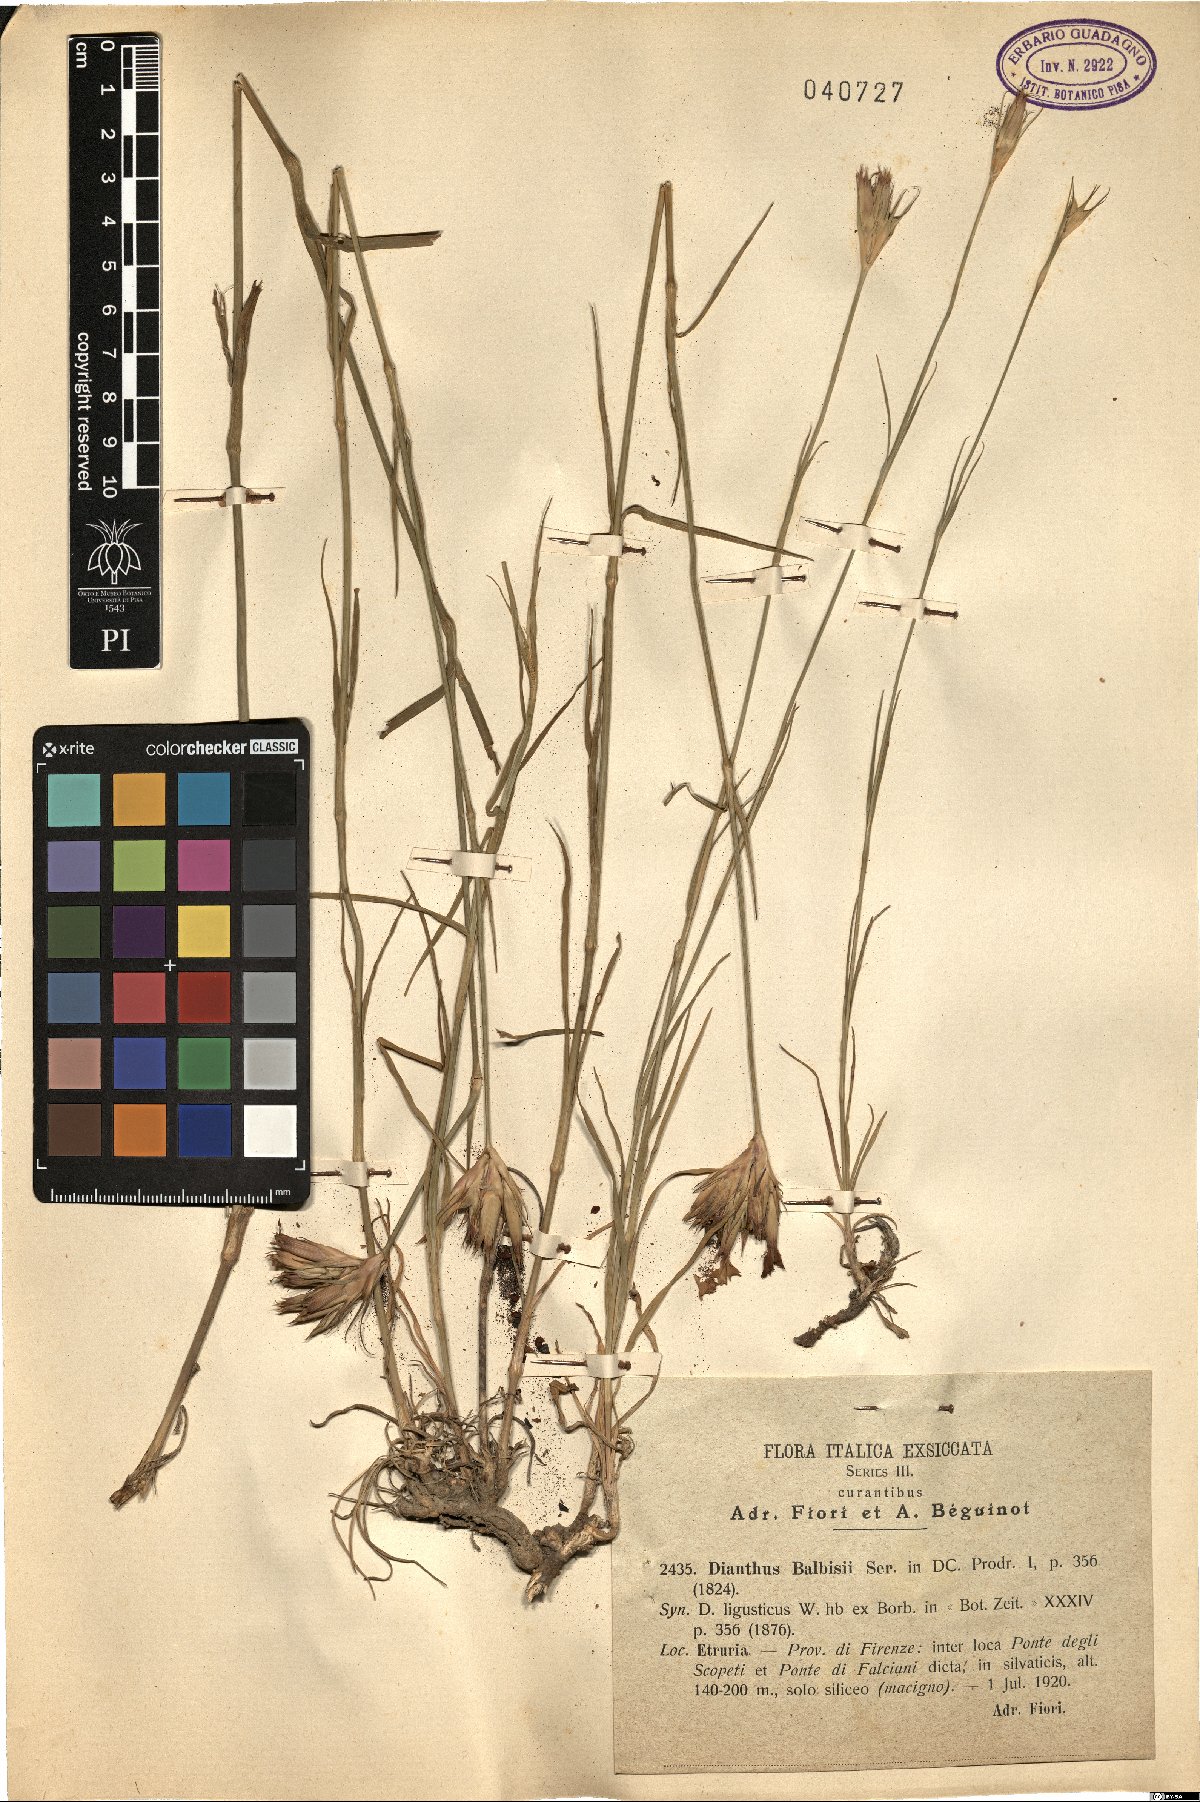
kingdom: Plantae
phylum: Tracheophyta
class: Magnoliopsida
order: Caryophyllales
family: Caryophyllaceae
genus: Dianthus
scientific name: Dianthus balbisii
